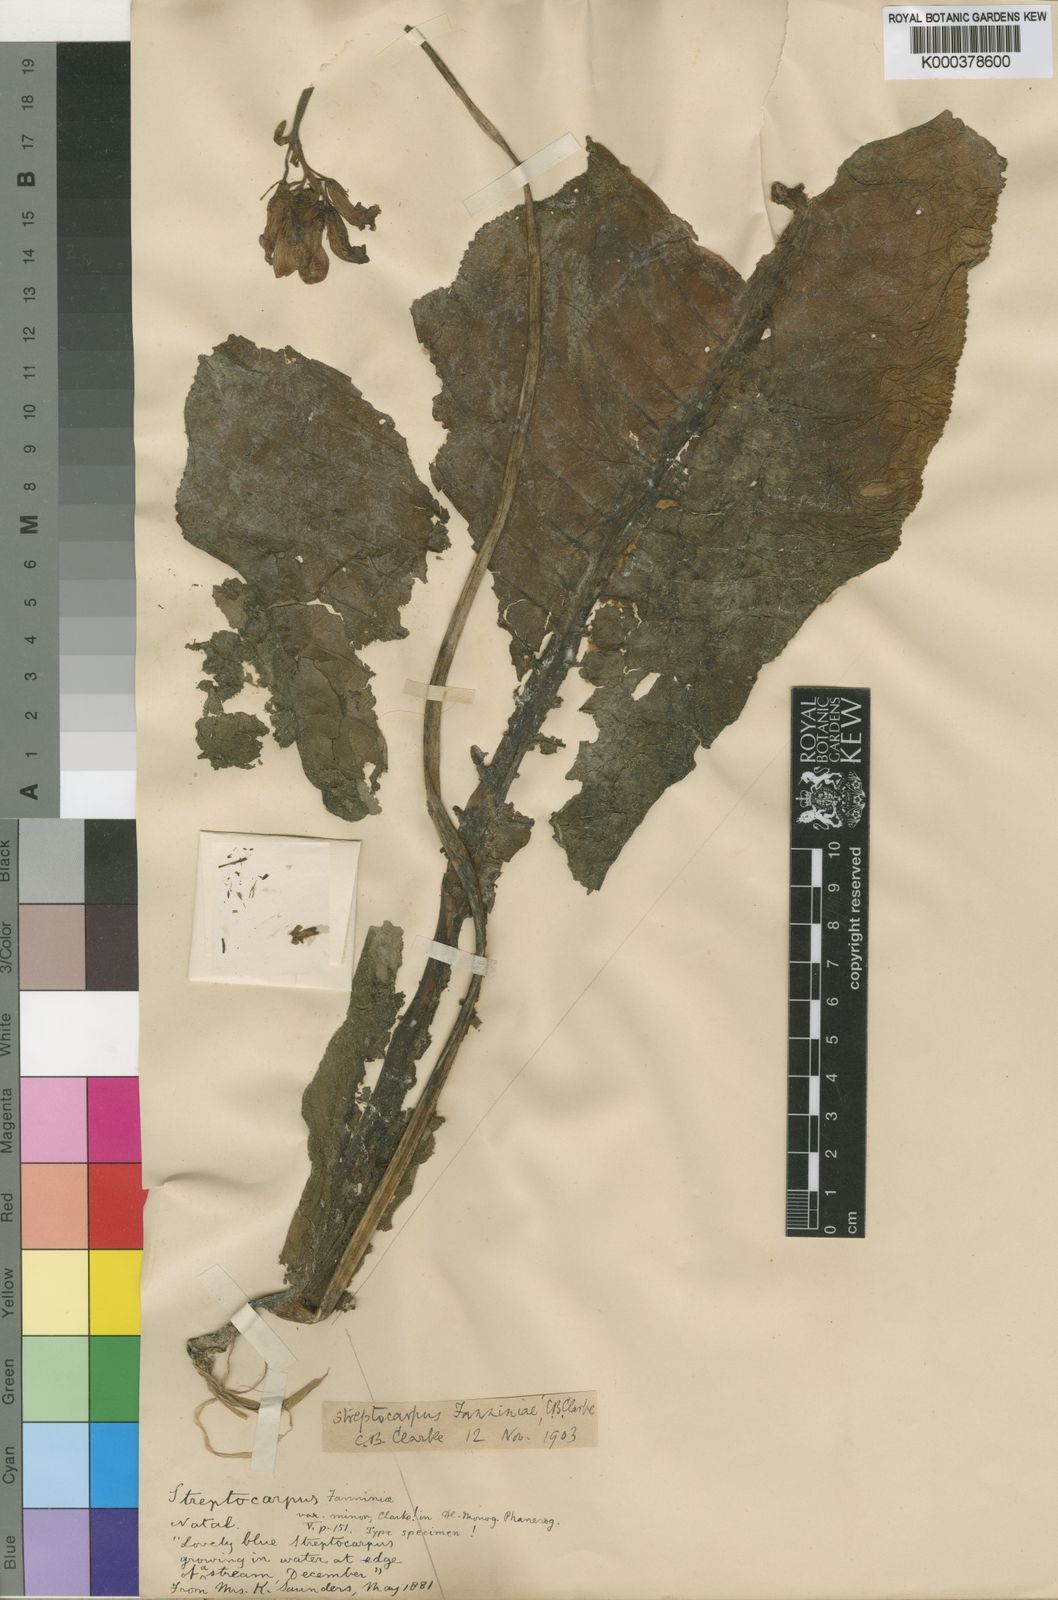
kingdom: Plantae
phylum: Tracheophyta
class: Magnoliopsida
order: Lamiales
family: Gesneriaceae
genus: Streptocarpus
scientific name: Streptocarpus fanniniae
